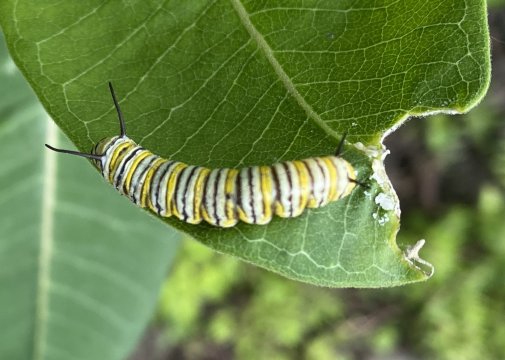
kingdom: Animalia
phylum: Arthropoda
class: Insecta
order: Lepidoptera
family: Nymphalidae
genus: Danaus
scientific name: Danaus plexippus
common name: Monarch
